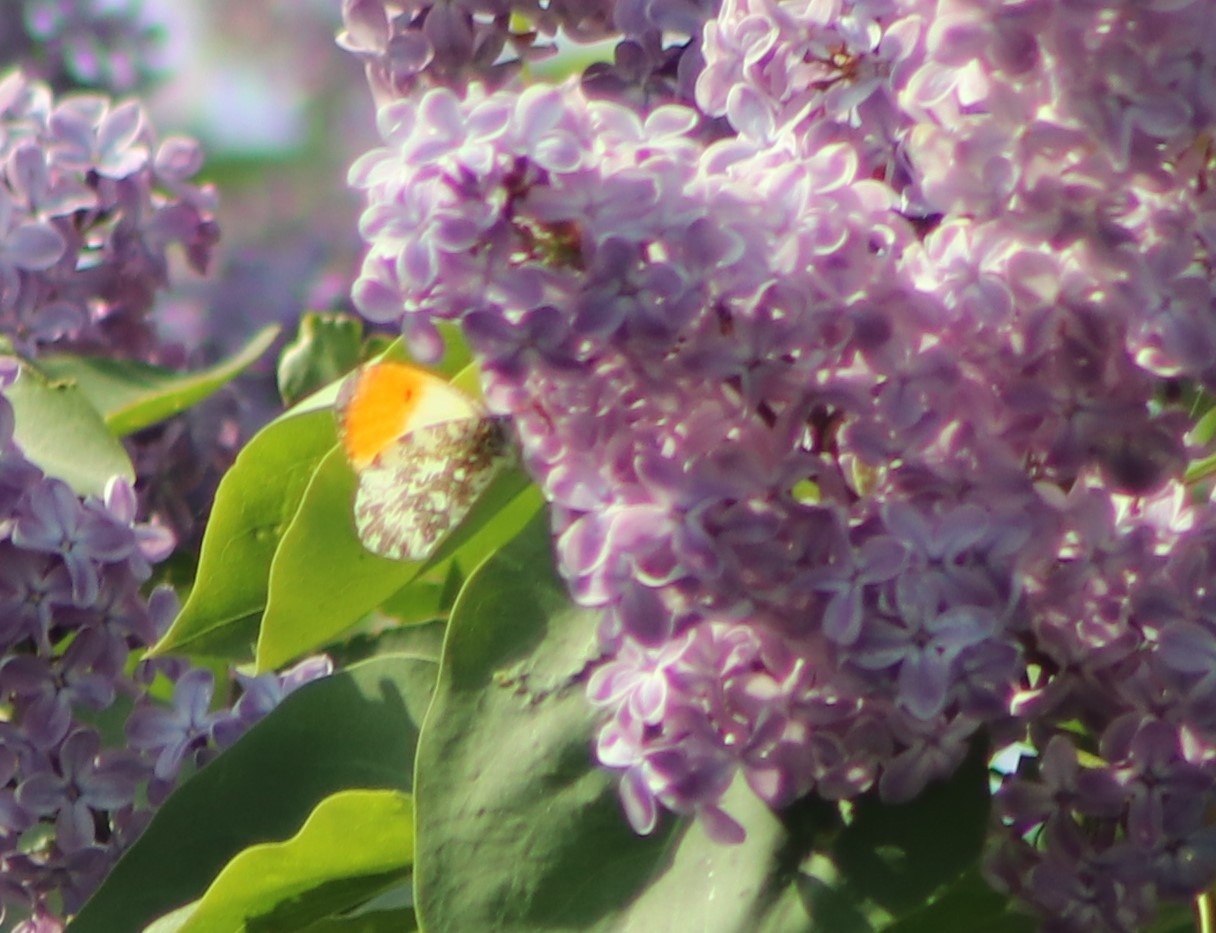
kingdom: Animalia
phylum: Arthropoda
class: Insecta
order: Lepidoptera
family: Pieridae
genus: Anthocharis
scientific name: Anthocharis cardamines
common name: Aurora
